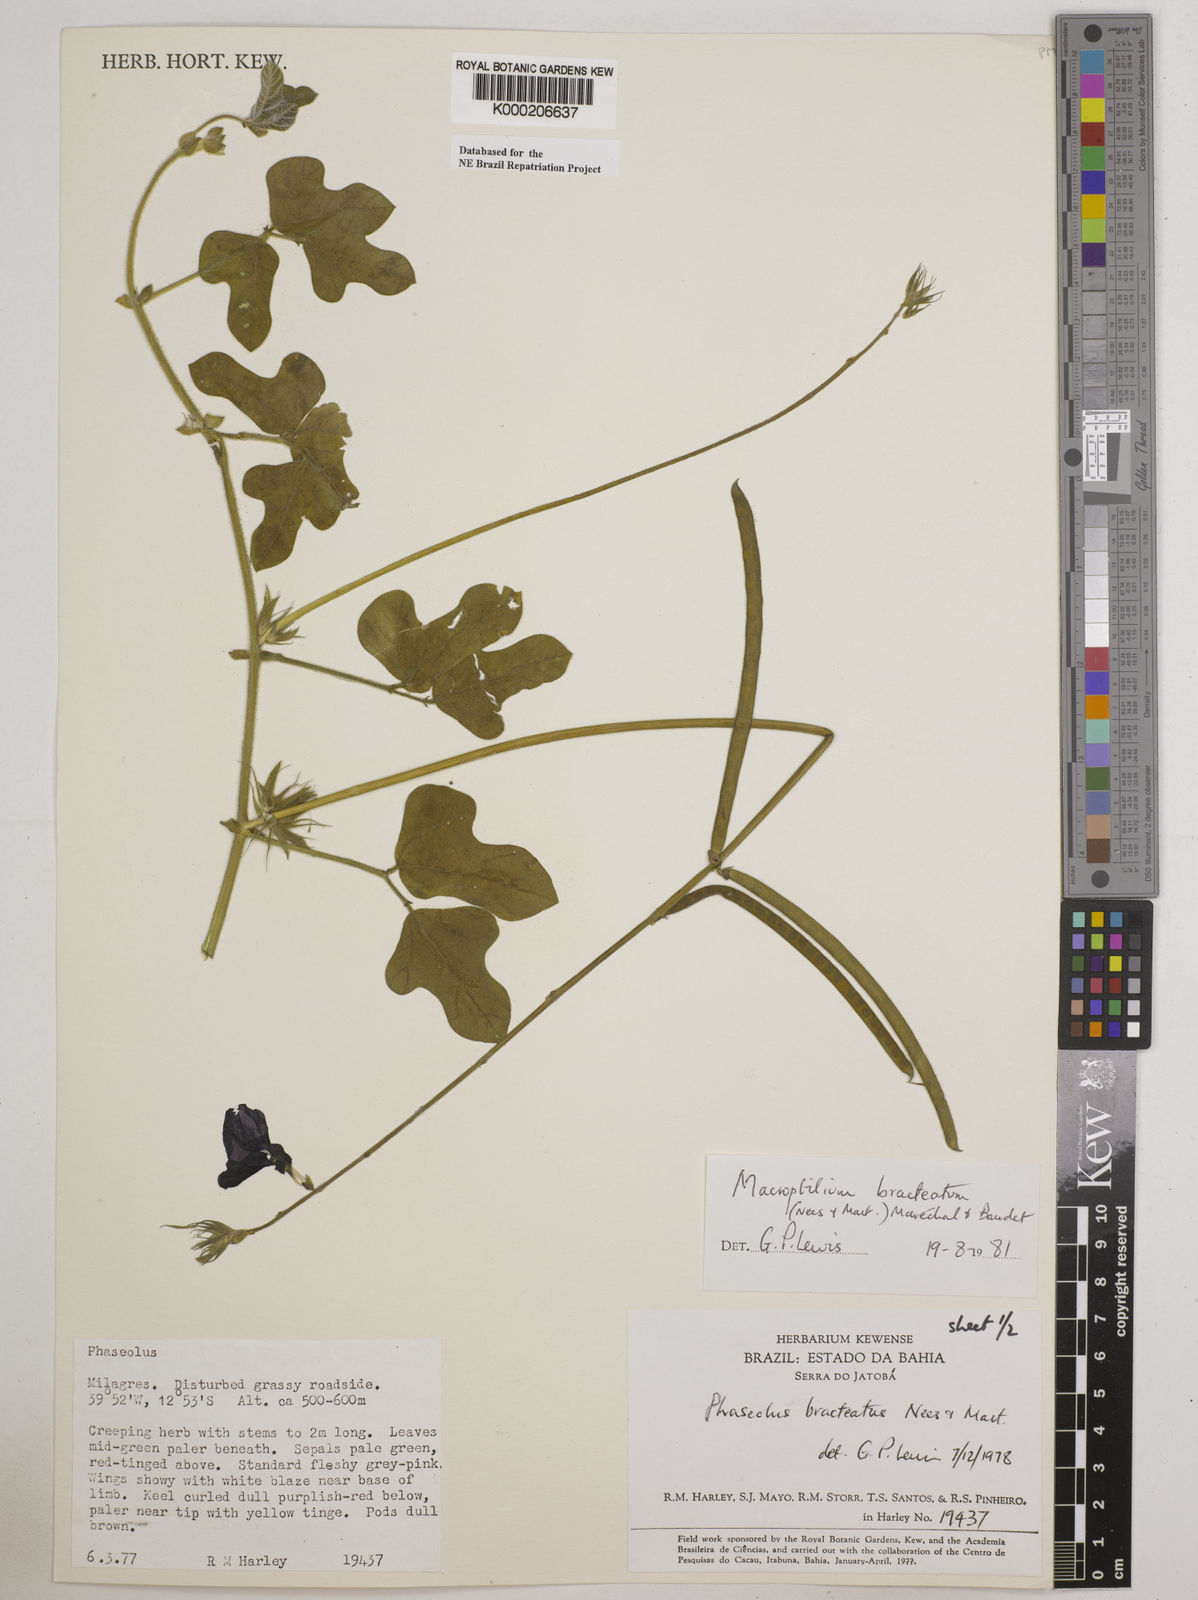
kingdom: Plantae
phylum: Tracheophyta
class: Magnoliopsida
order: Fabales
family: Fabaceae
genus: Macroptilium
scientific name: Macroptilium
